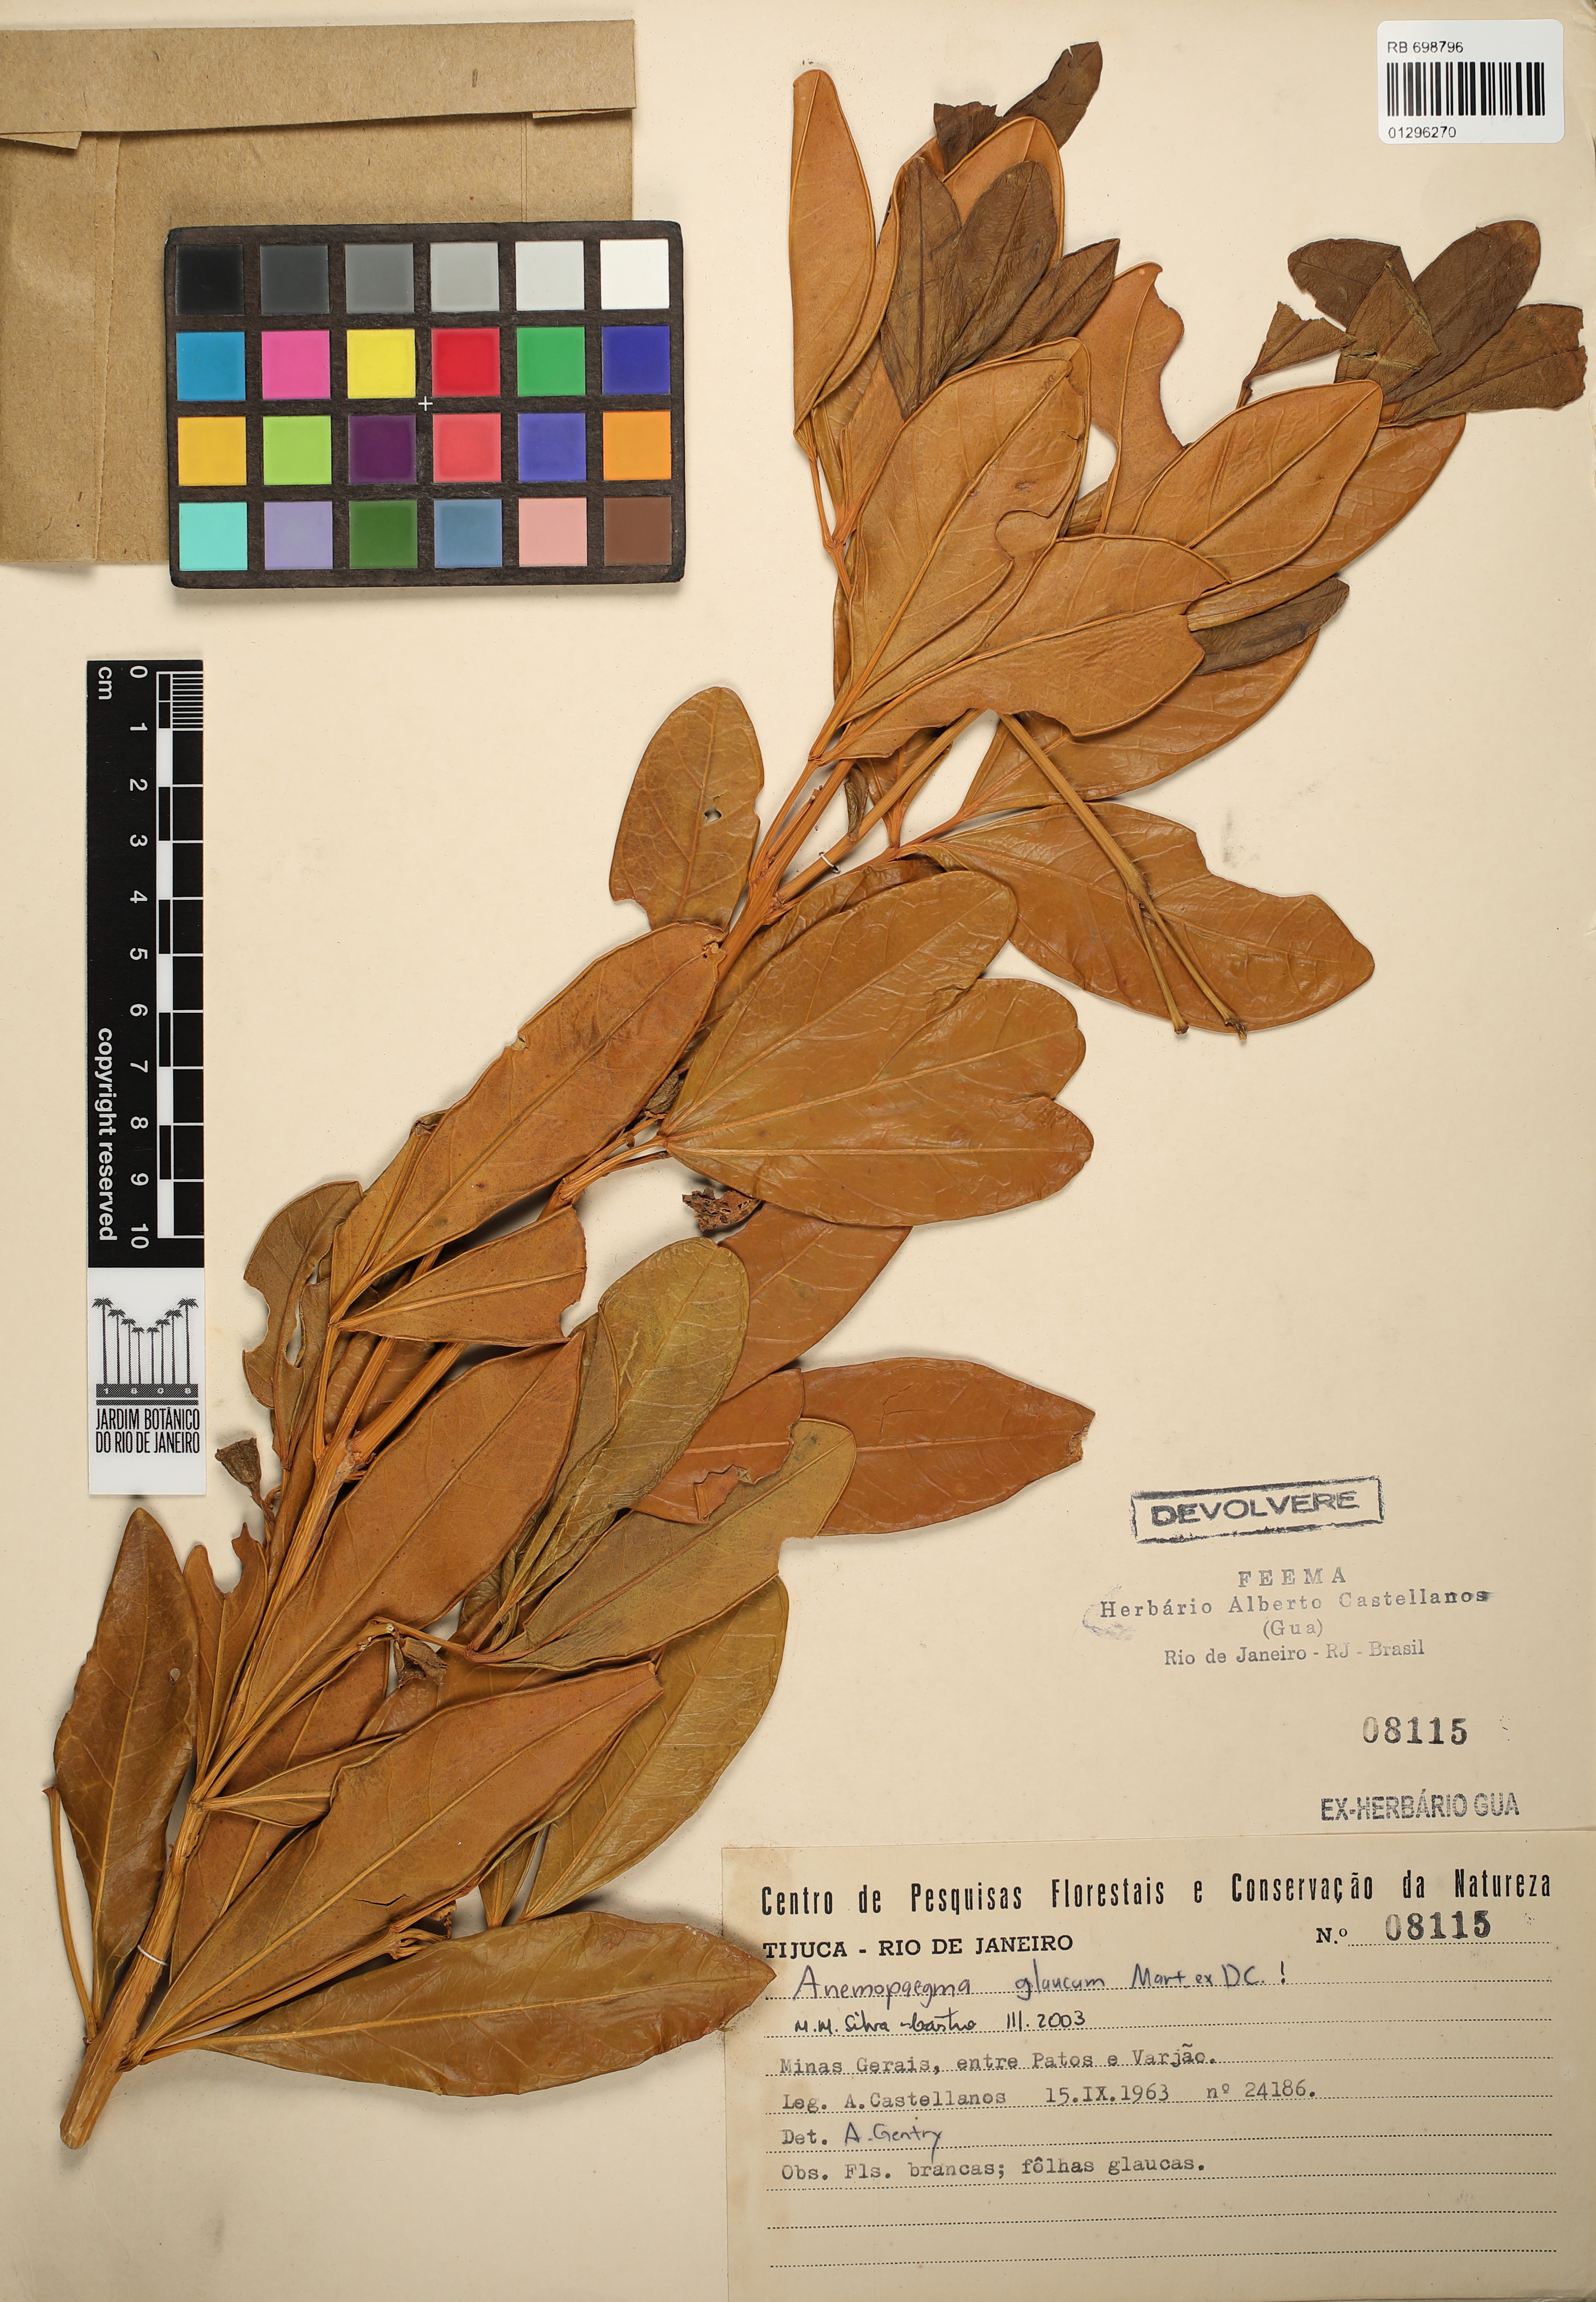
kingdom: Plantae
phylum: Tracheophyta
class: Magnoliopsida
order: Lamiales
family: Bignoniaceae
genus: Anemopaegma
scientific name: Anemopaegma glaucum
